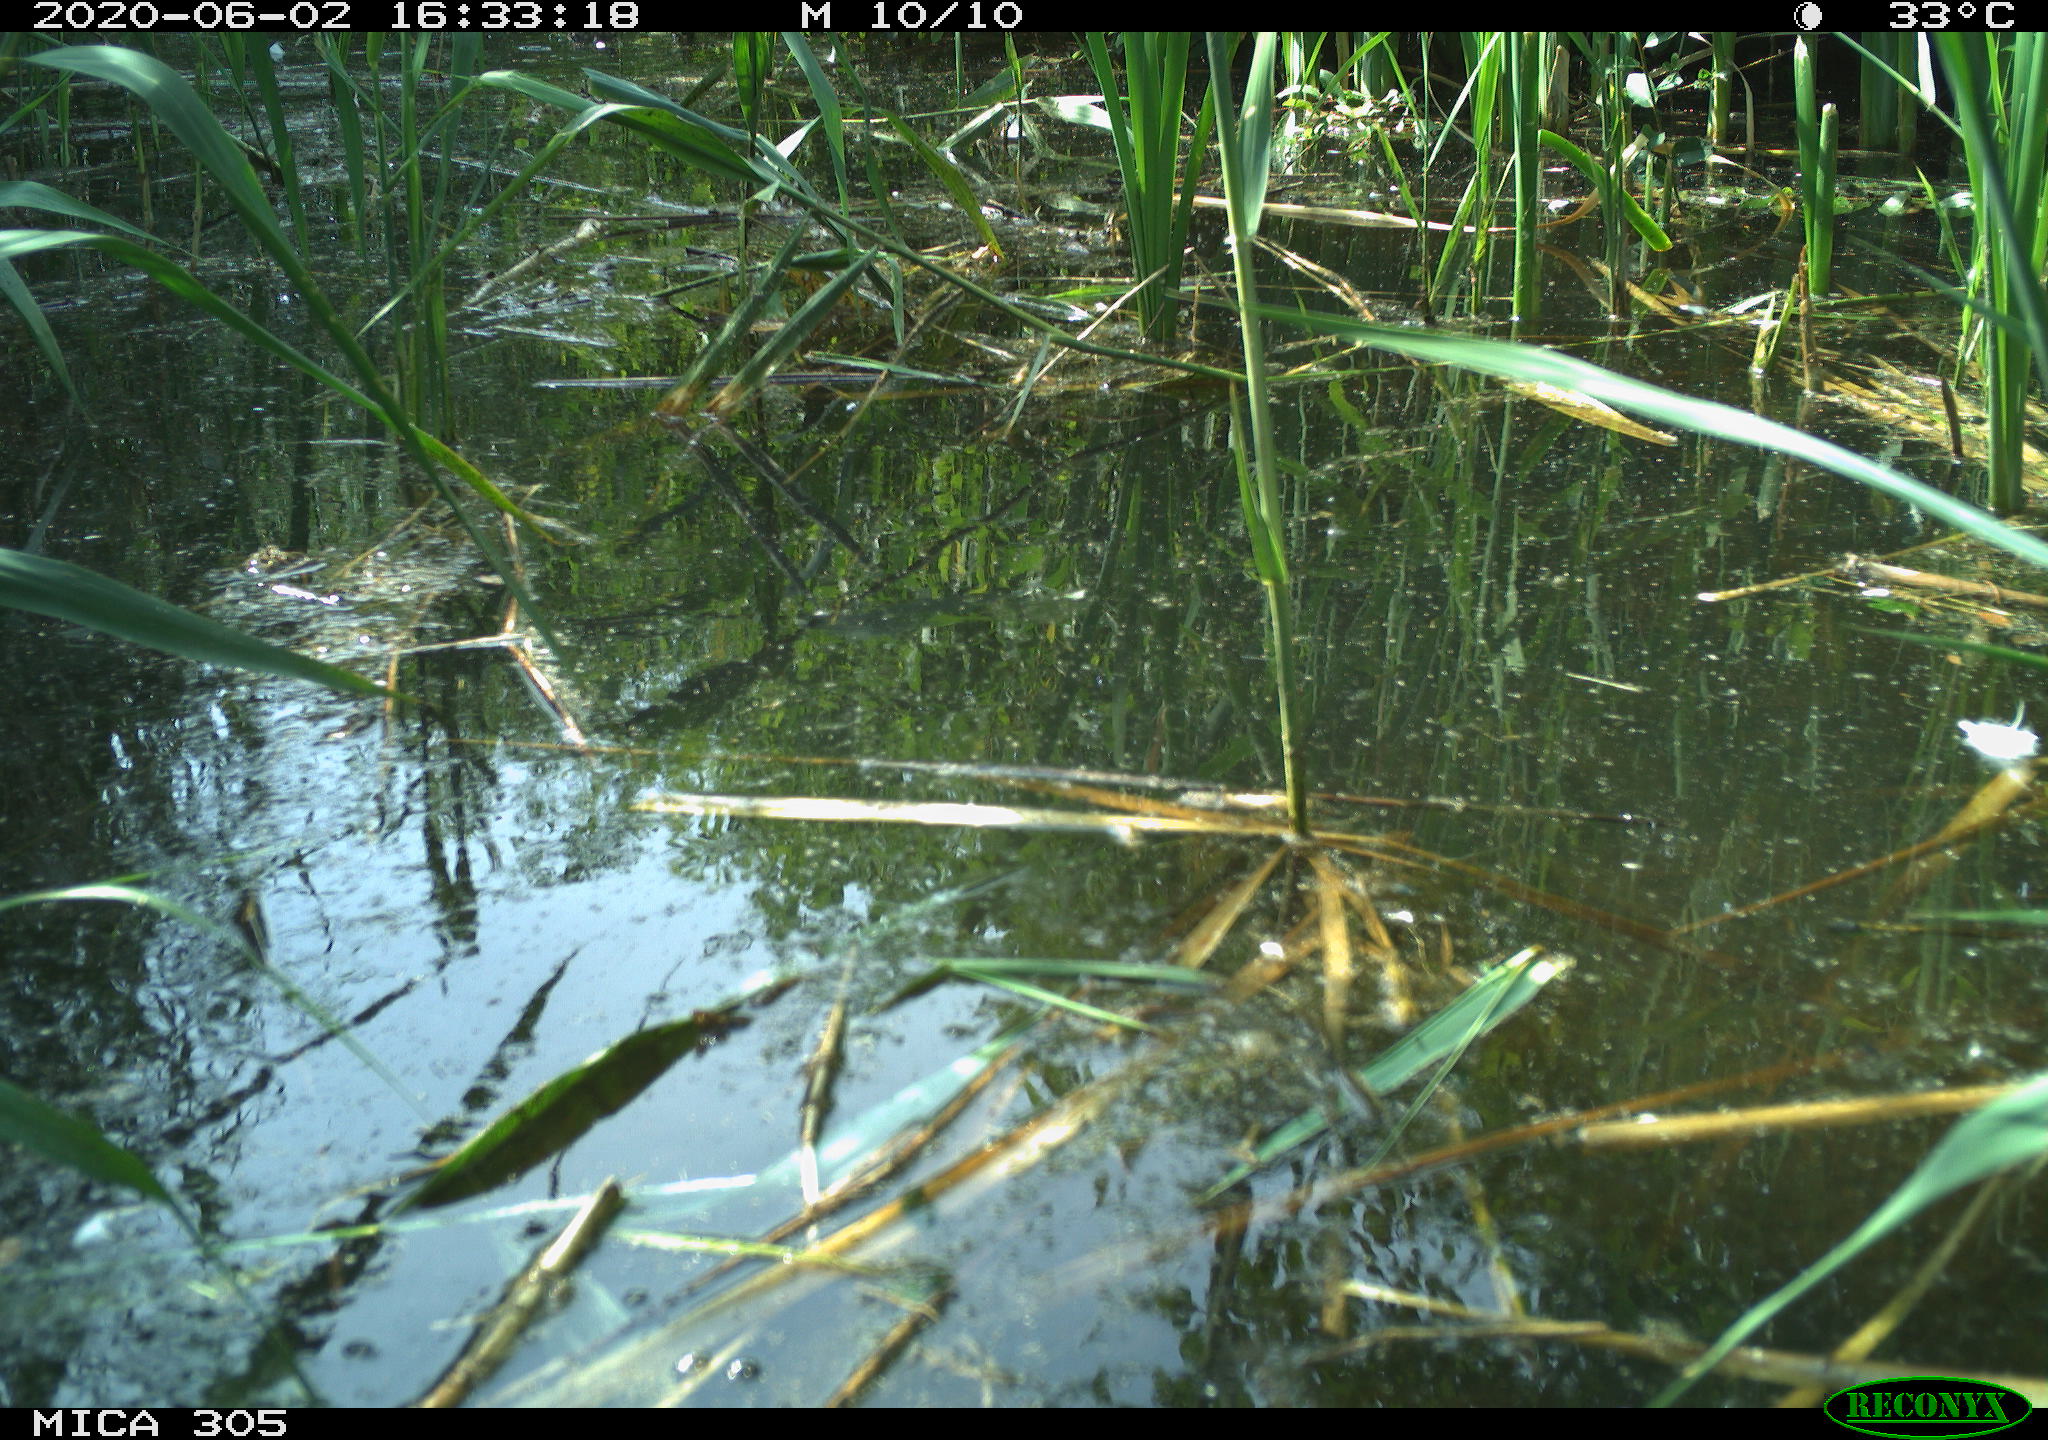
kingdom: Animalia
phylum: Chordata
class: Aves
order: Anseriformes
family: Anatidae
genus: Anas
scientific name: Anas platyrhynchos
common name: Mallard
